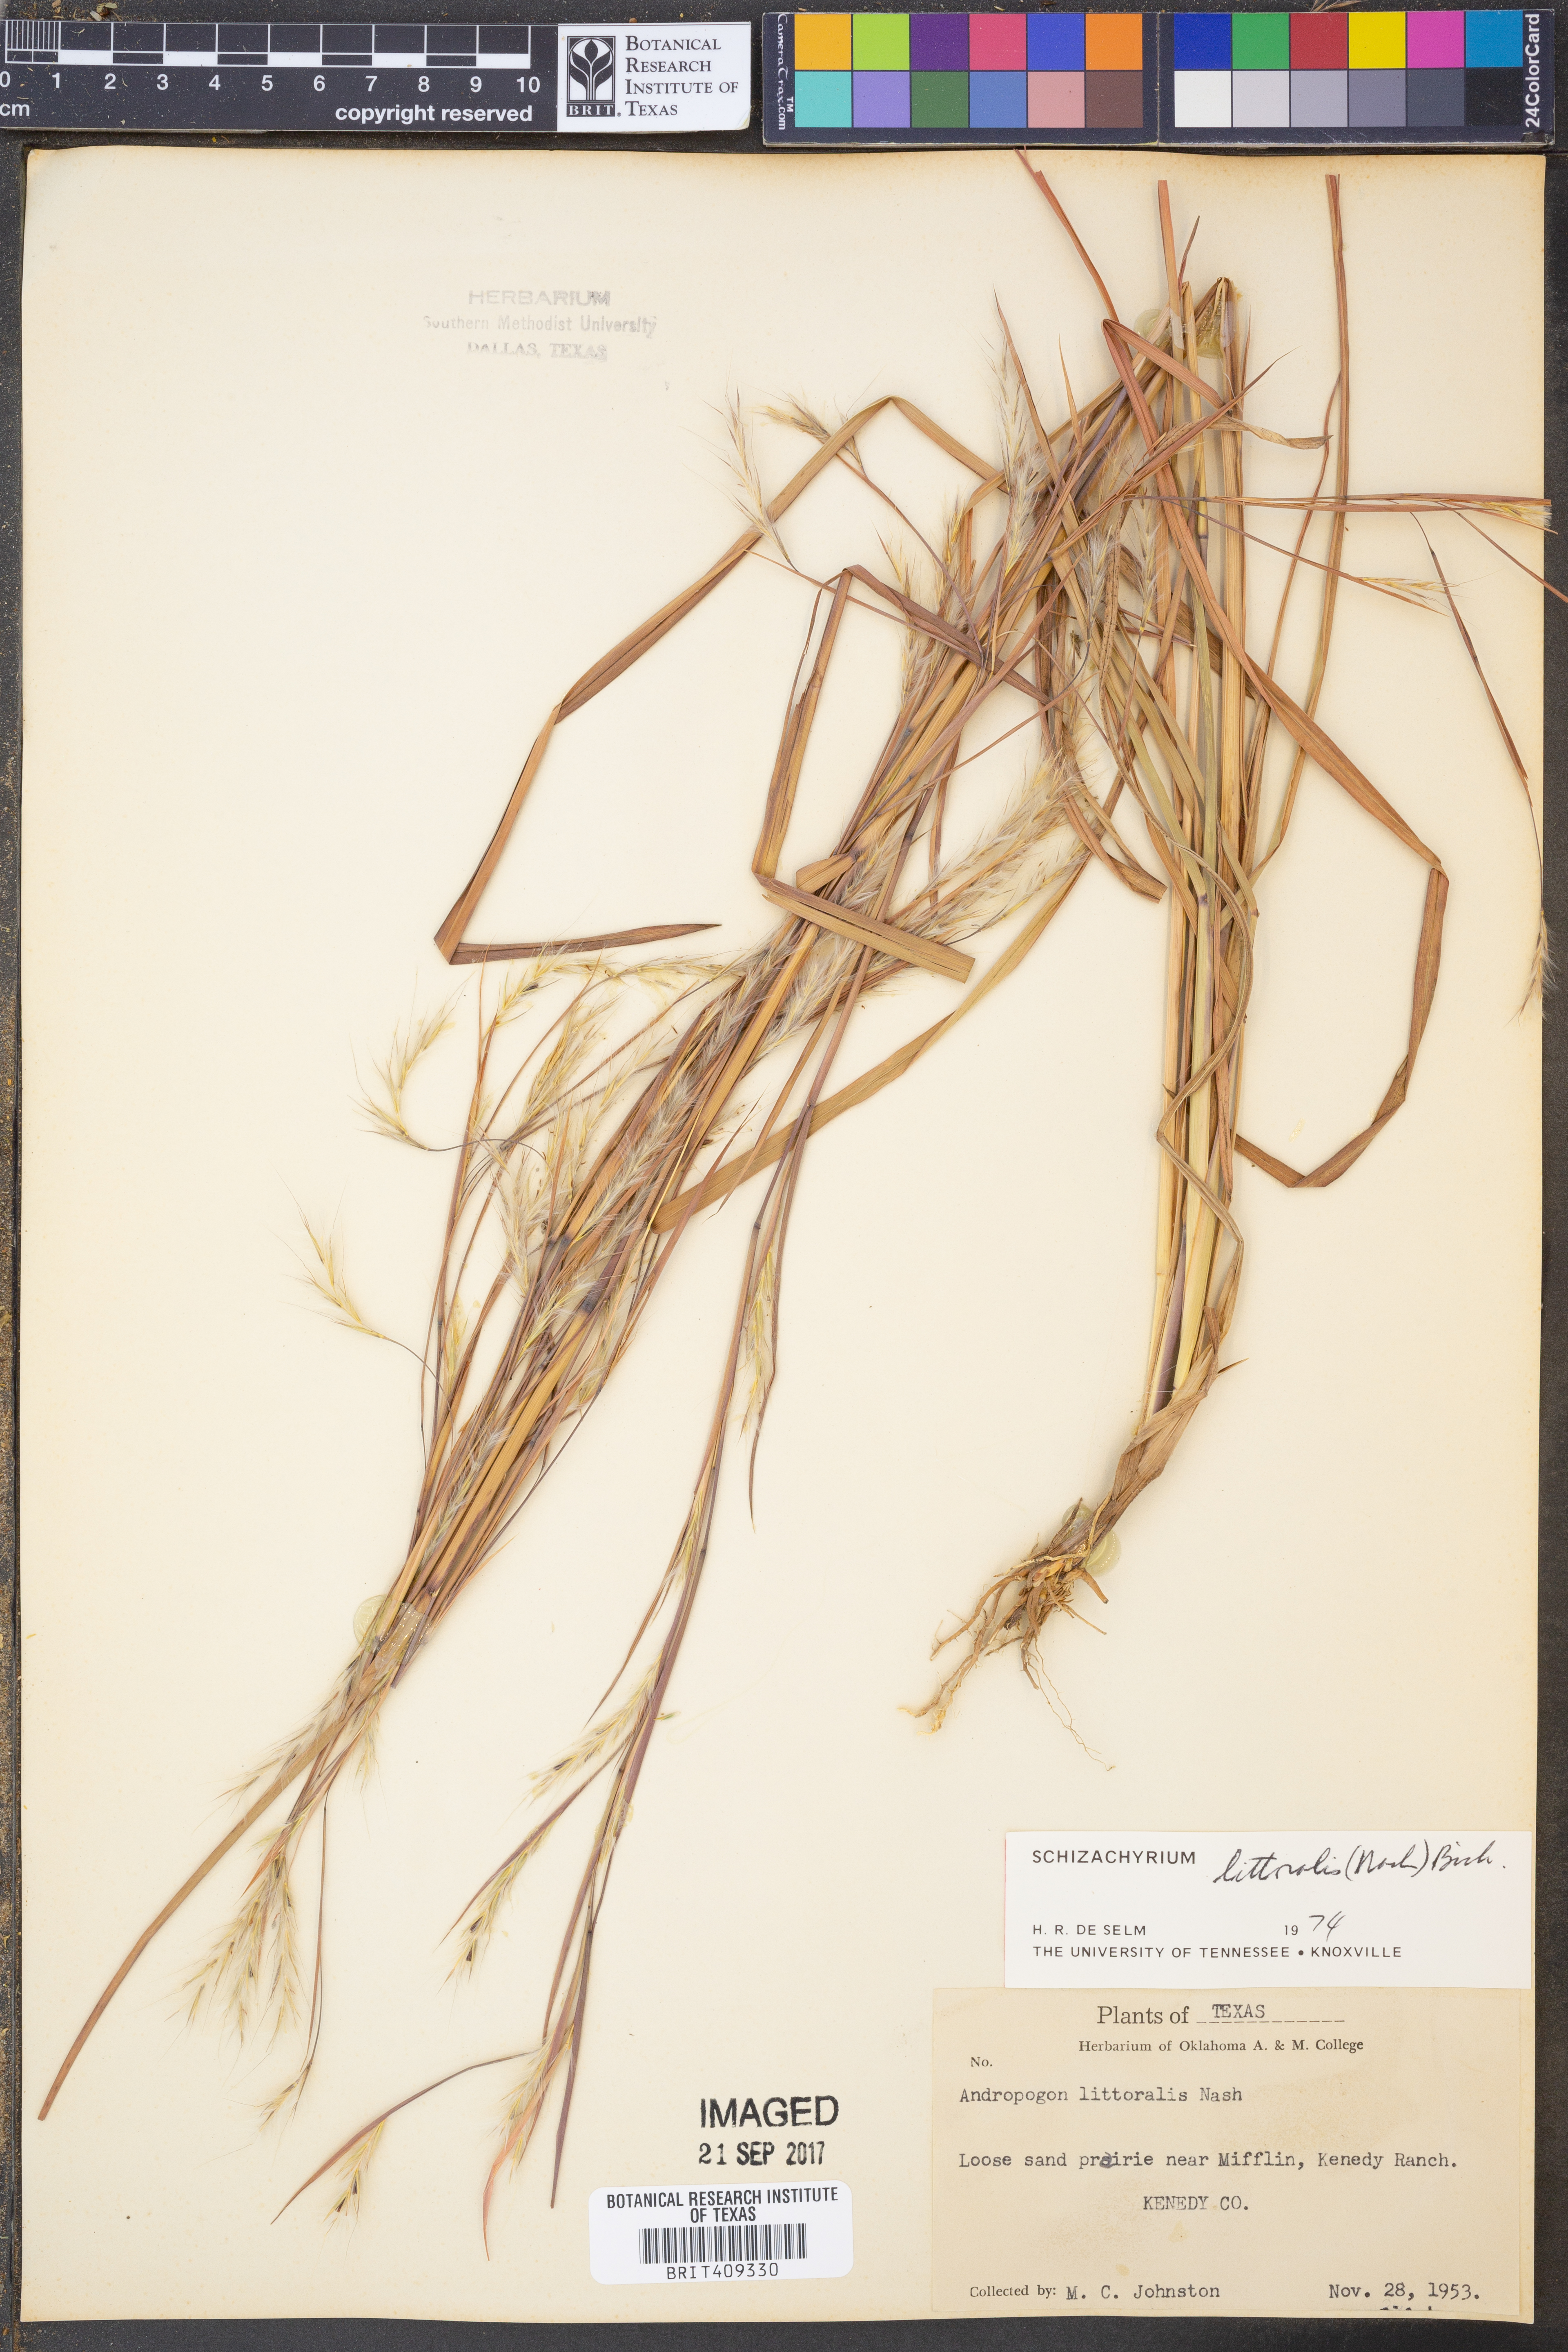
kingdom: Plantae
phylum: Tracheophyta
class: Liliopsida
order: Poales
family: Poaceae
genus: Schizachyrium
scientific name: Schizachyrium scoparium
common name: Little bluestem
